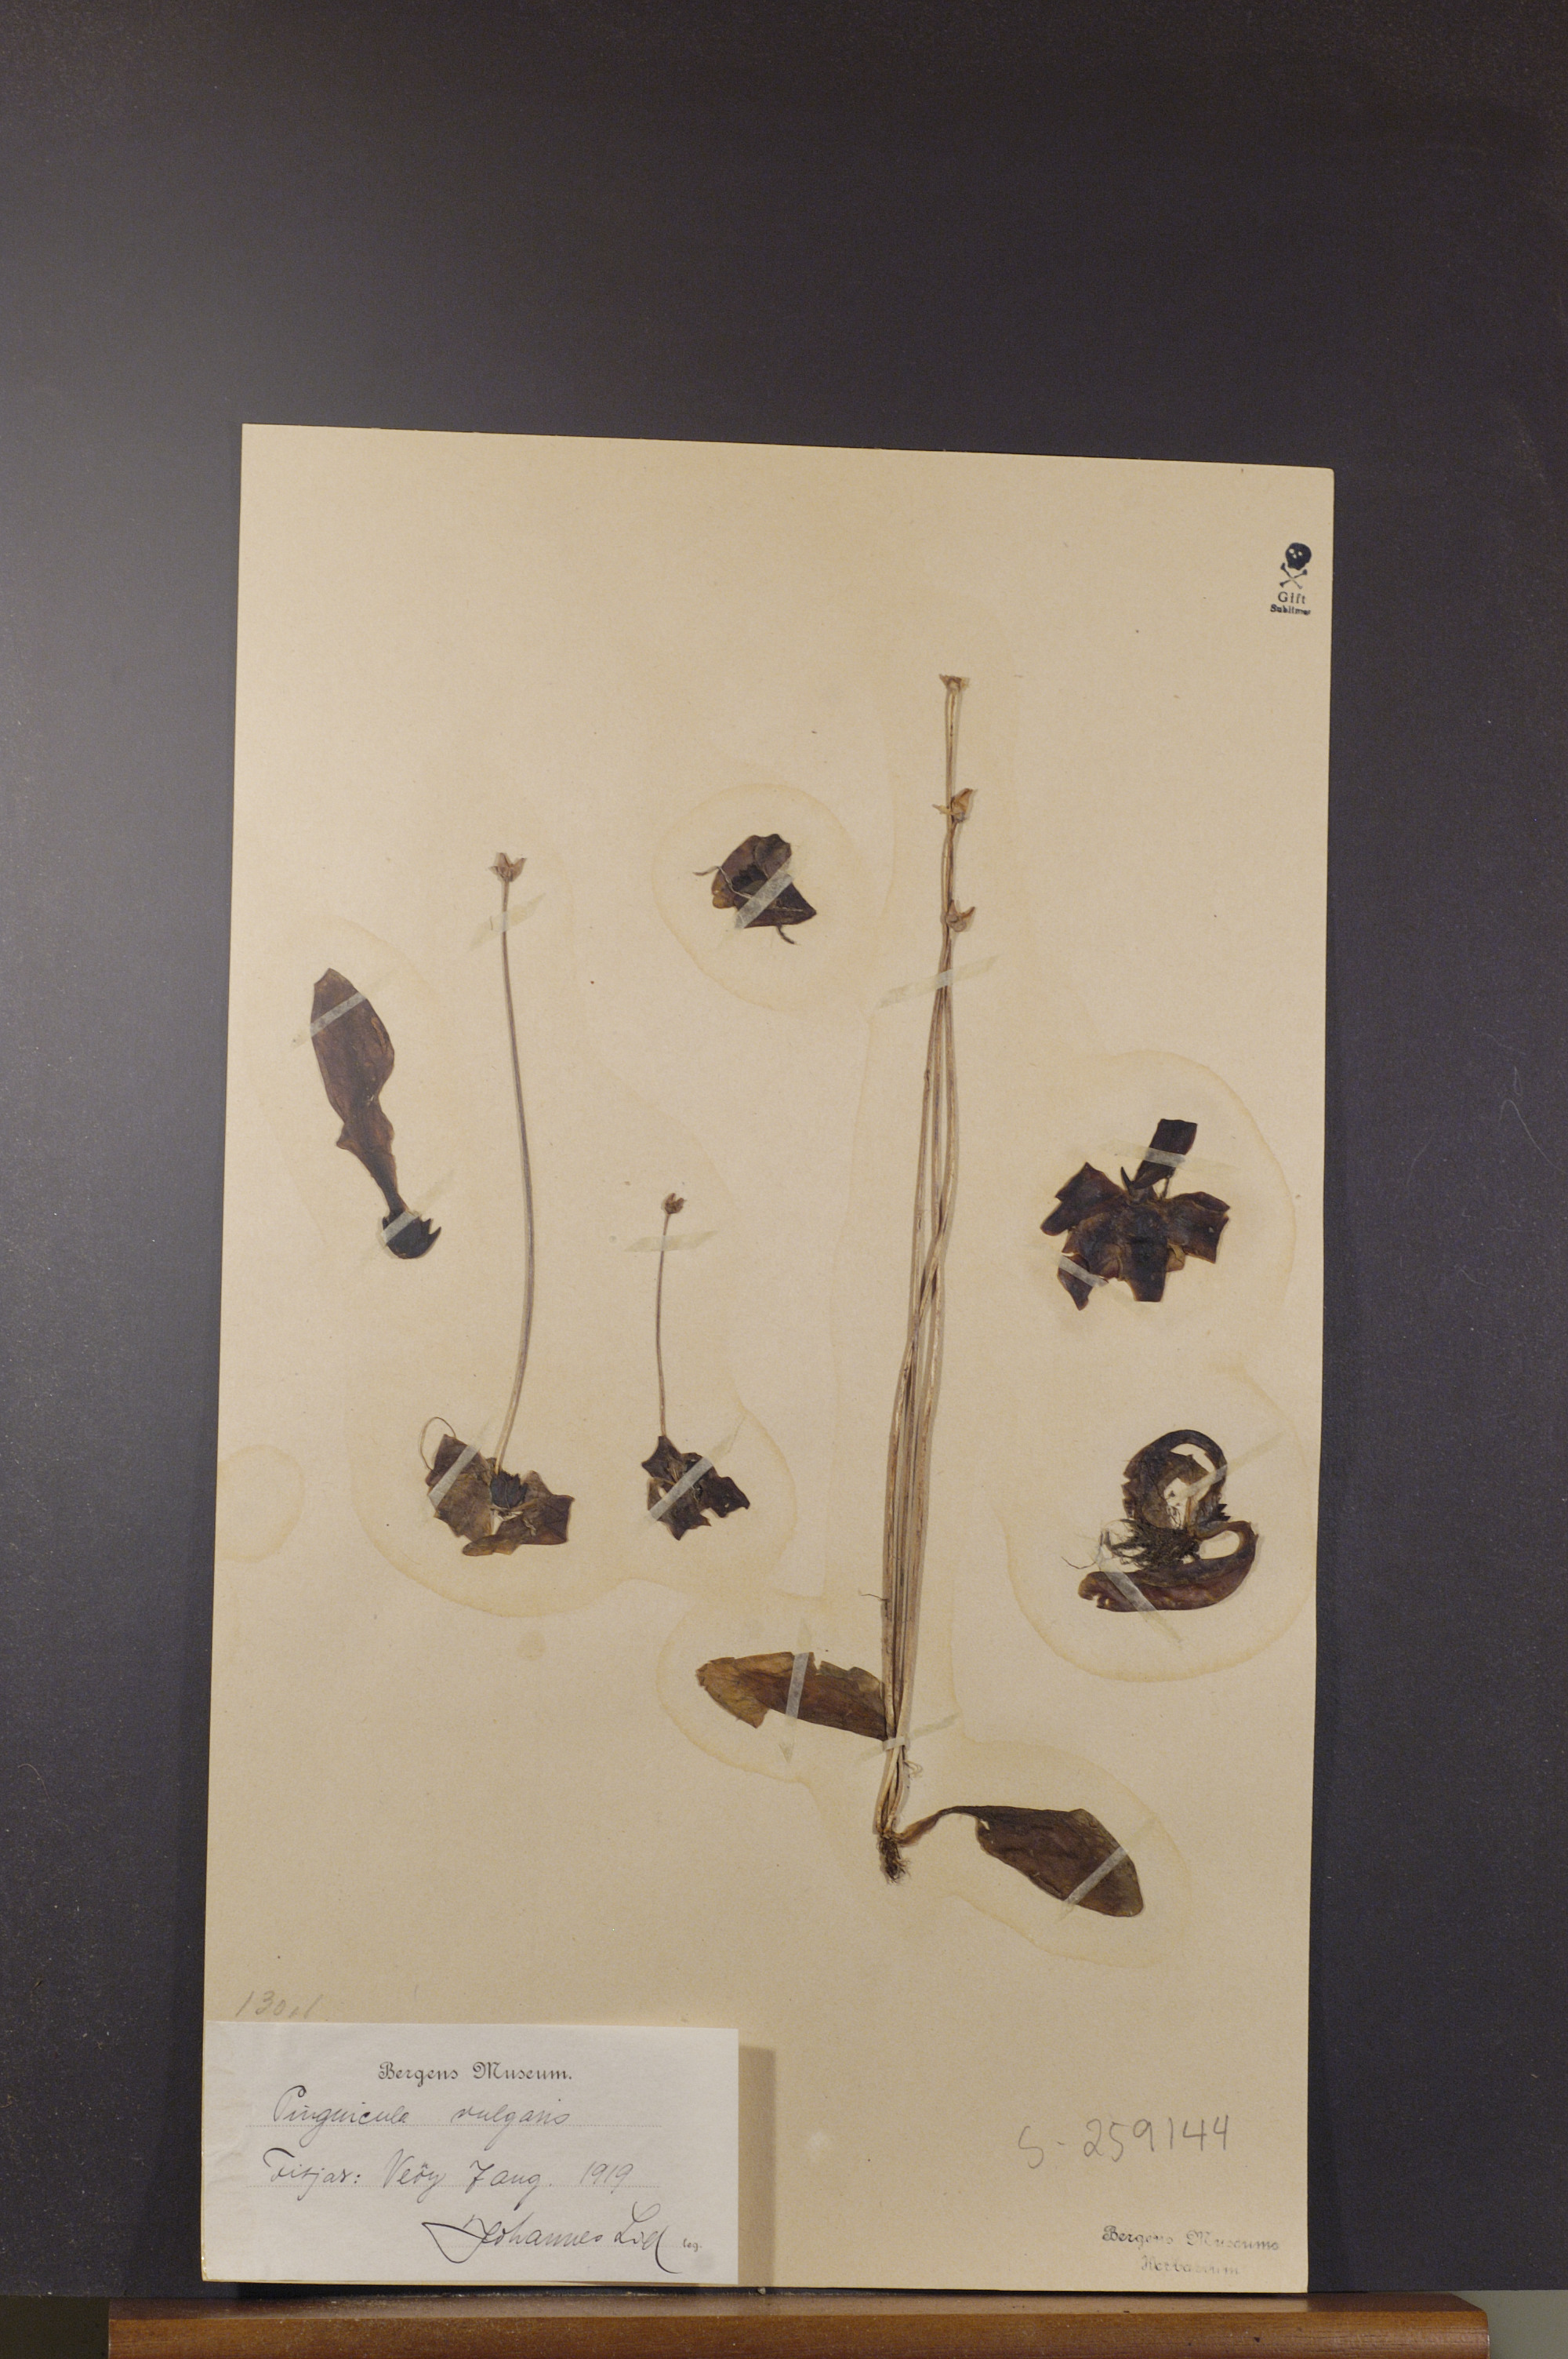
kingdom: Plantae
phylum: Tracheophyta
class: Magnoliopsida
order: Lamiales
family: Lentibulariaceae
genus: Pinguicula
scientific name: Pinguicula vulgaris
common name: Common butterwort
